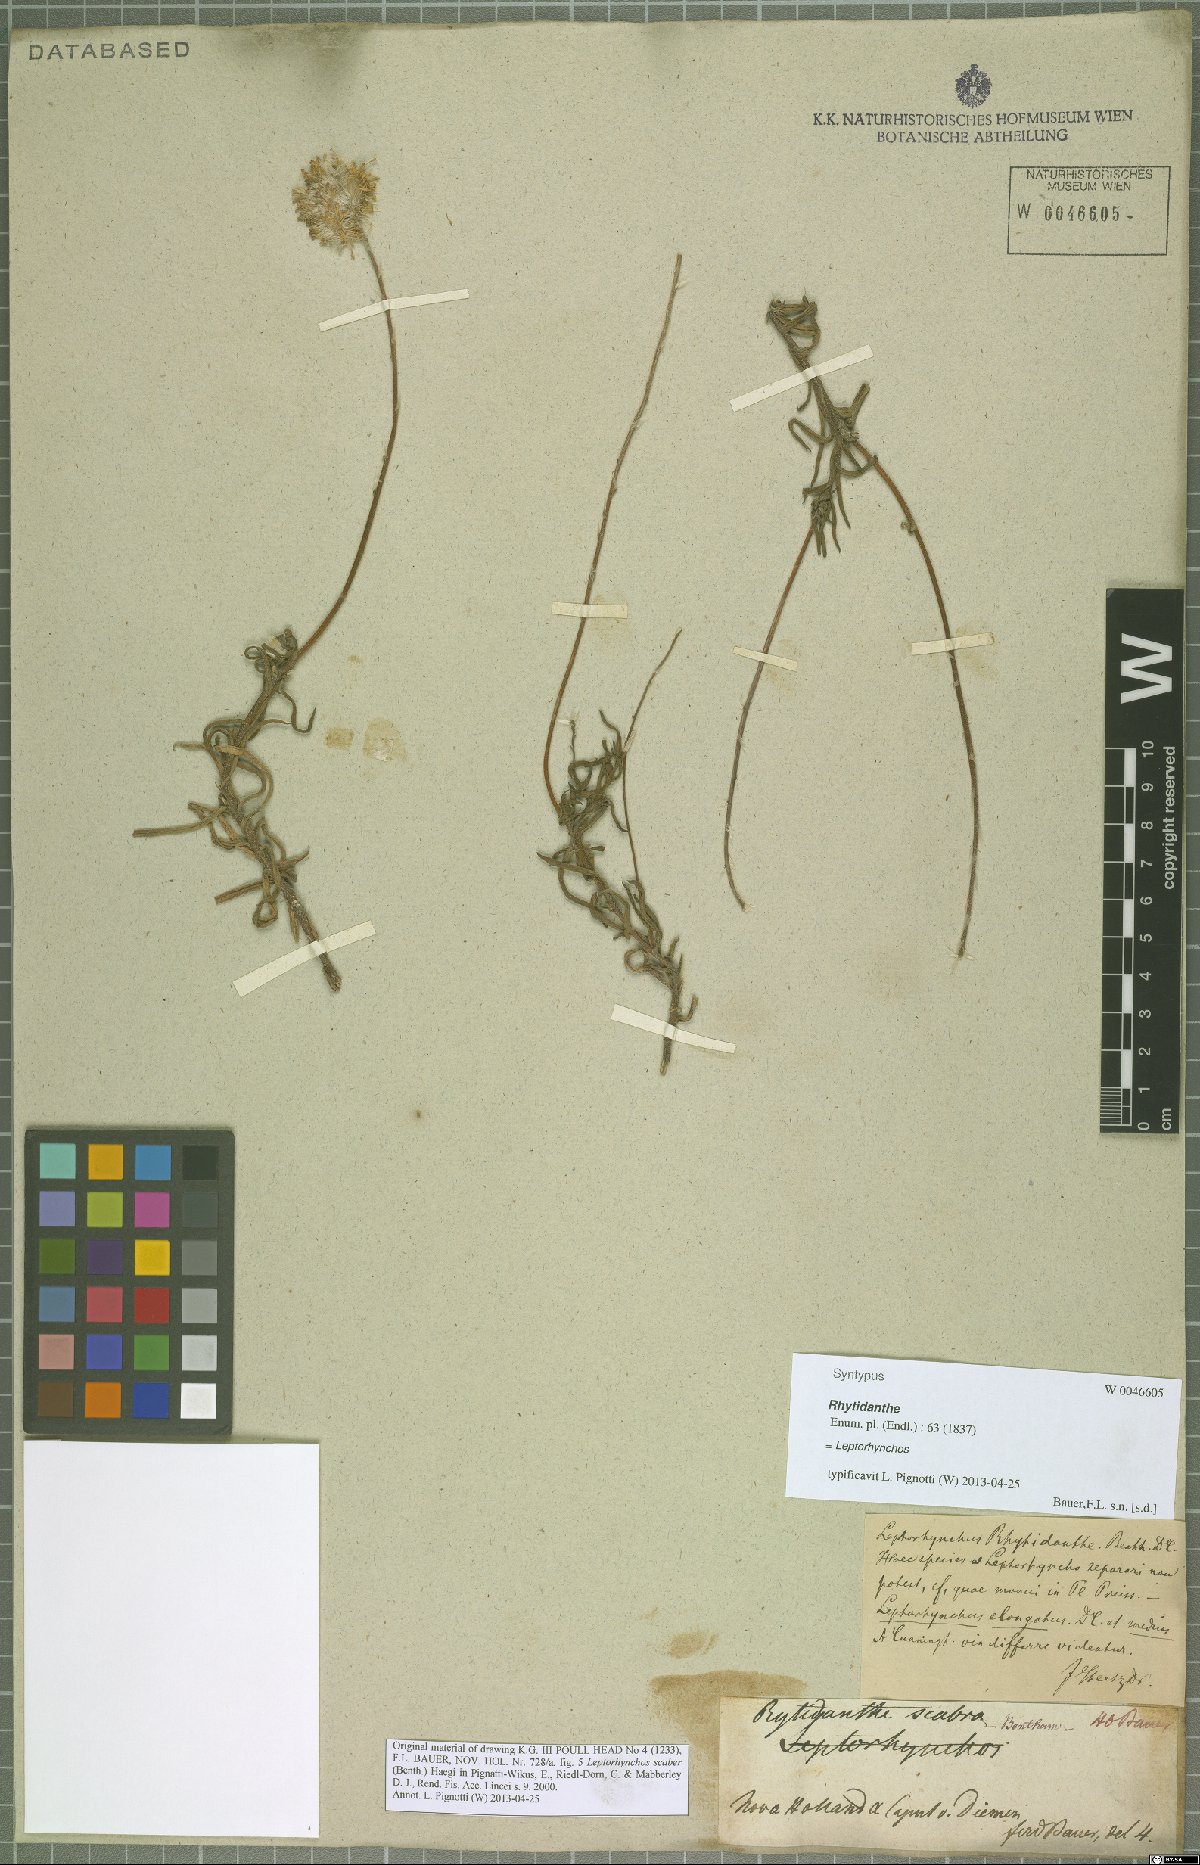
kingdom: Plantae
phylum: Tracheophyta
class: Magnoliopsida
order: Asterales
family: Asteraceae
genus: Leptorhynchos
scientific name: Leptorhynchos scabrus
